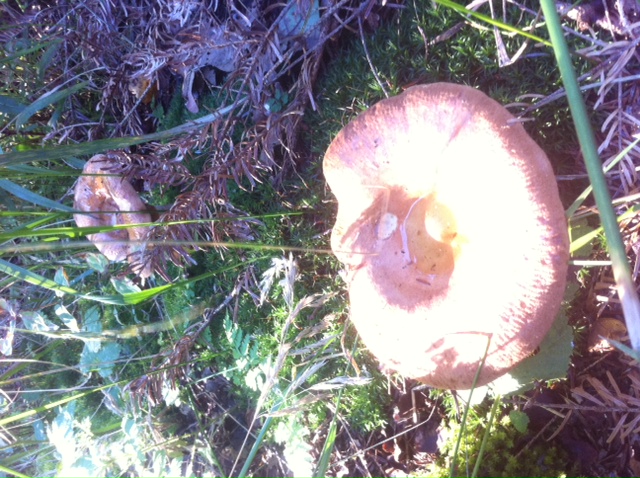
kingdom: Fungi
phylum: Basidiomycota
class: Agaricomycetes
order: Boletales
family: Paxillaceae
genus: Paxillus
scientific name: Paxillus involutus
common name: almindelig netbladhat
